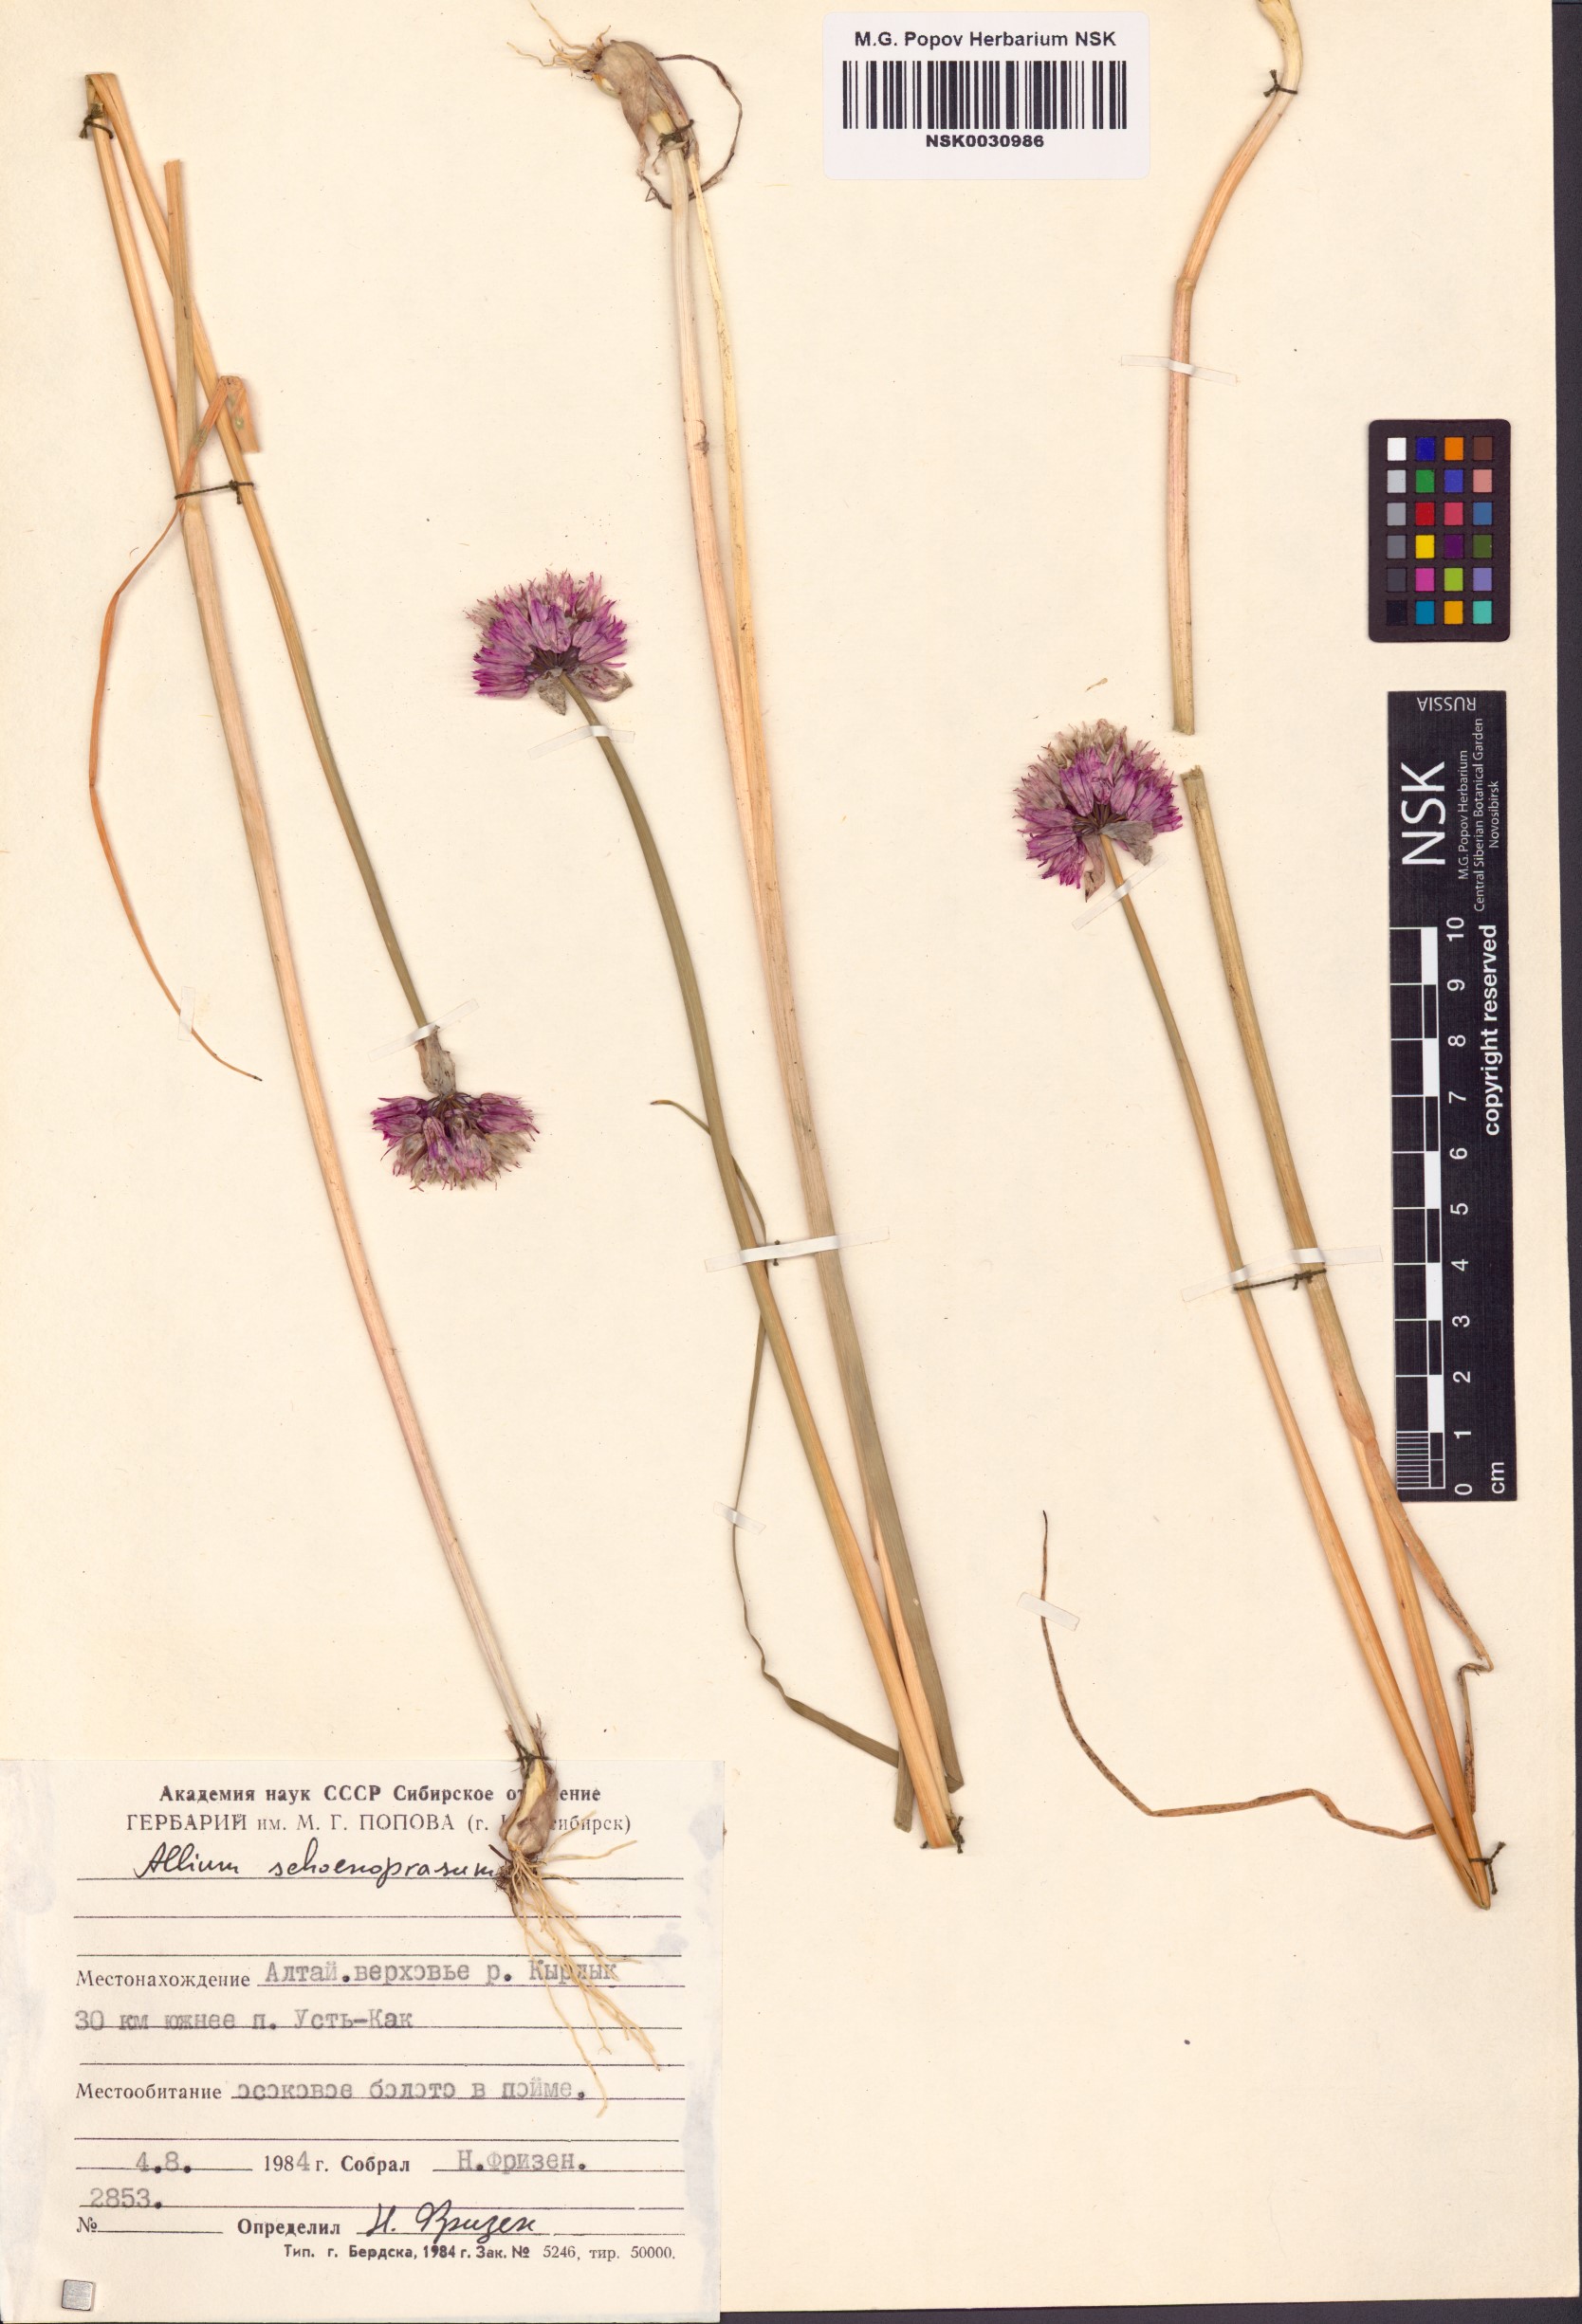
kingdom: Plantae
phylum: Tracheophyta
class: Liliopsida
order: Asparagales
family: Amaryllidaceae
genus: Allium
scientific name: Allium schoenoprasum
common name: Chives
